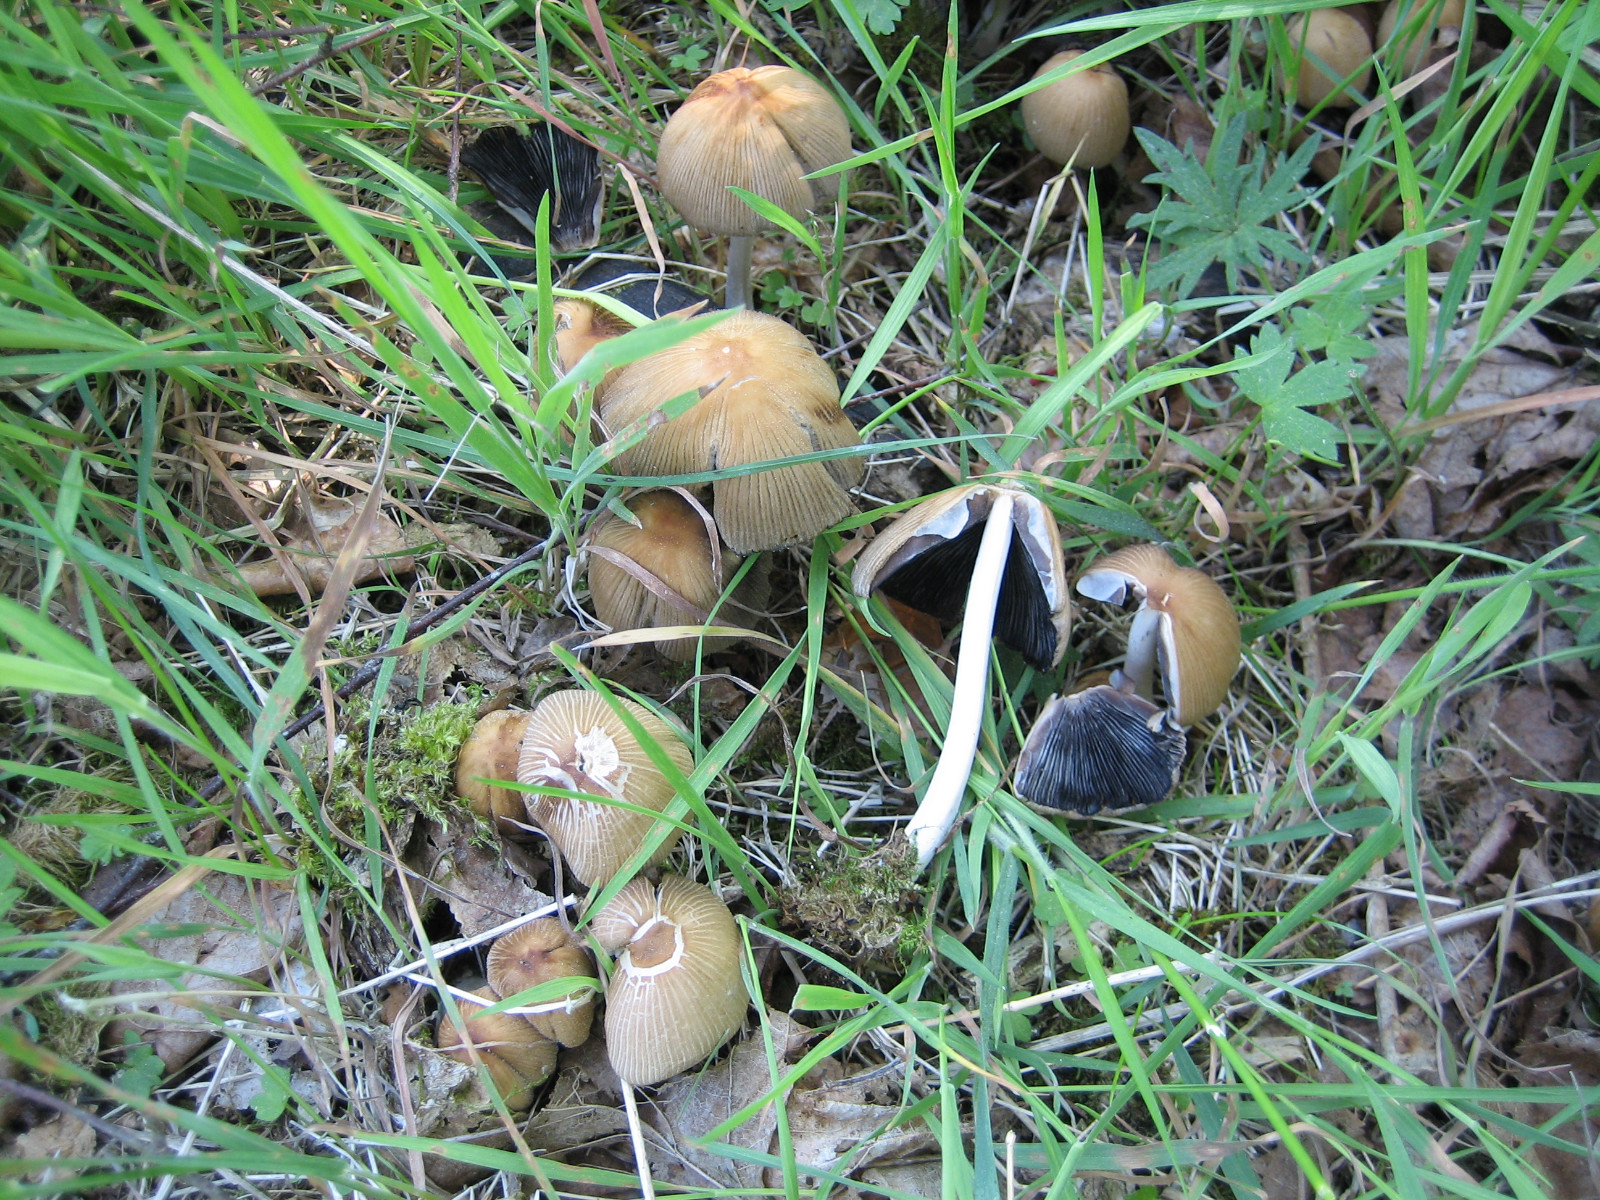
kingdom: Fungi
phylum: Basidiomycota
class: Agaricomycetes
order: Agaricales
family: Psathyrellaceae
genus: Coprinellus
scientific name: Coprinellus micaceus
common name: glimmer-blækhat
